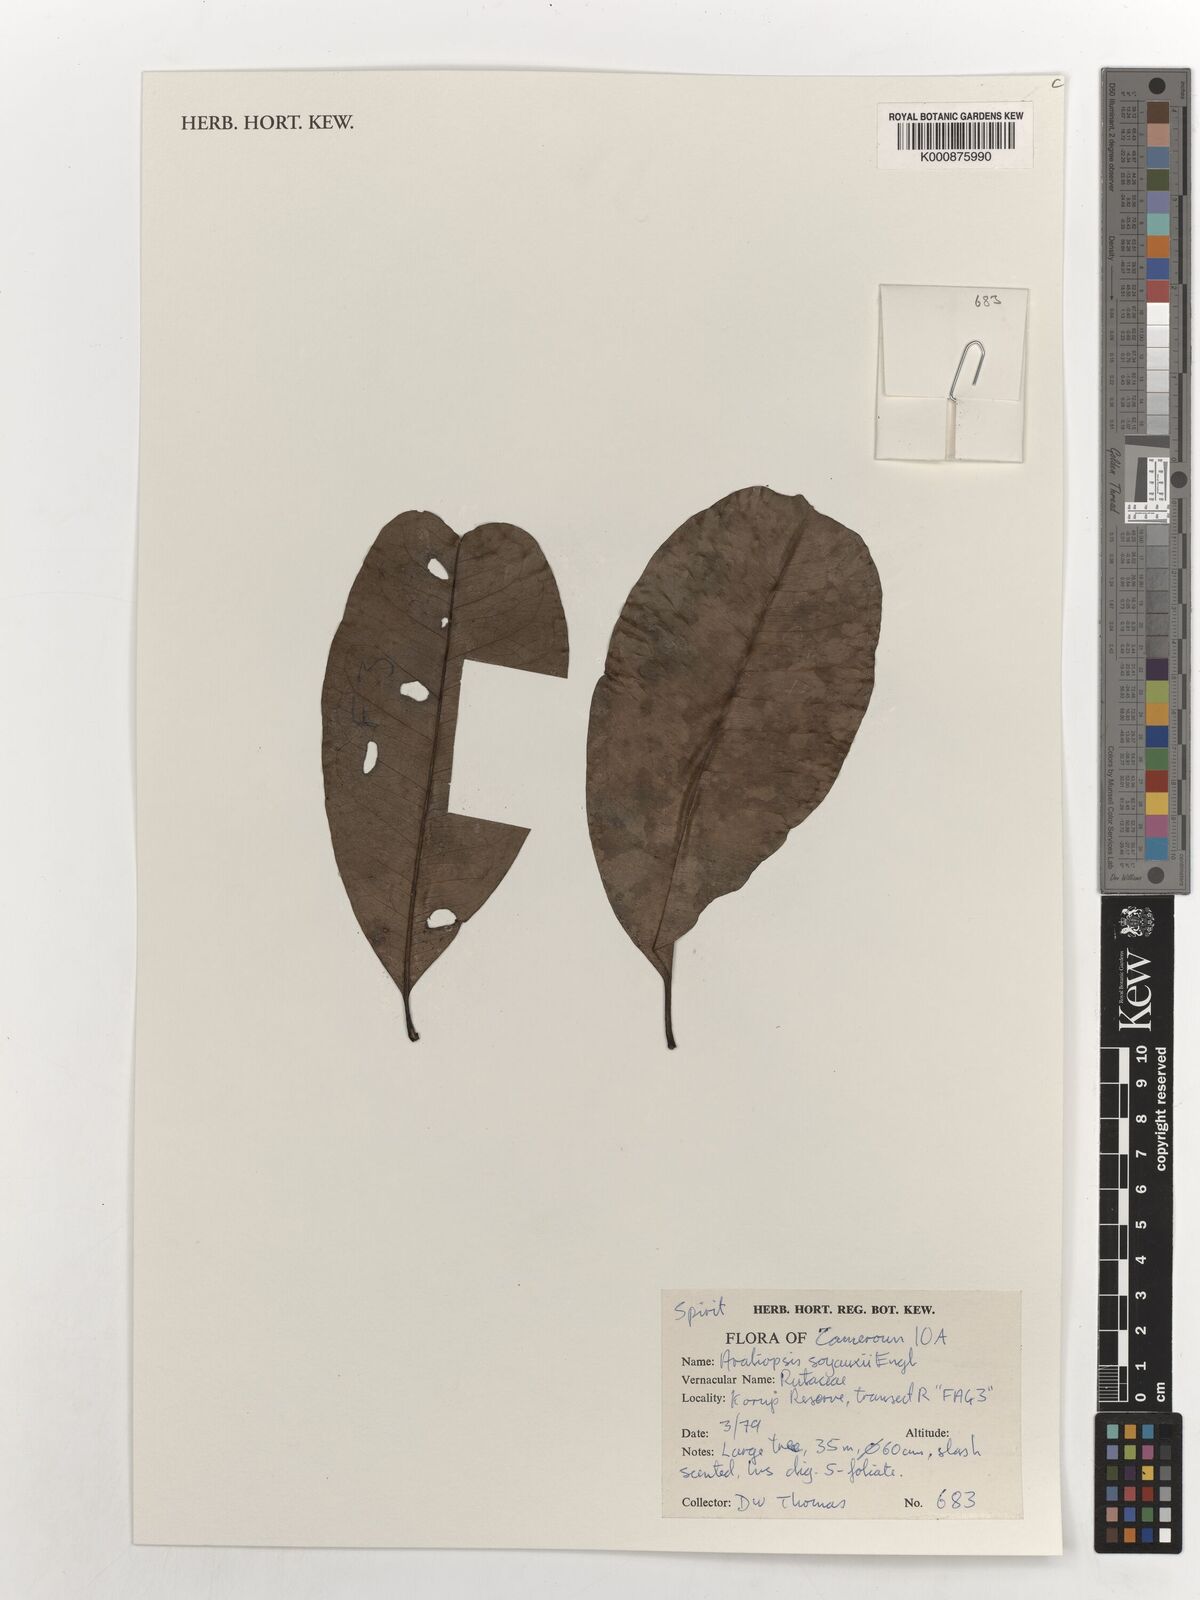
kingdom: Plantae
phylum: Tracheophyta
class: Magnoliopsida
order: Sapindales
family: Rutaceae
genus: Vepris
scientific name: Vepris soyauxii
